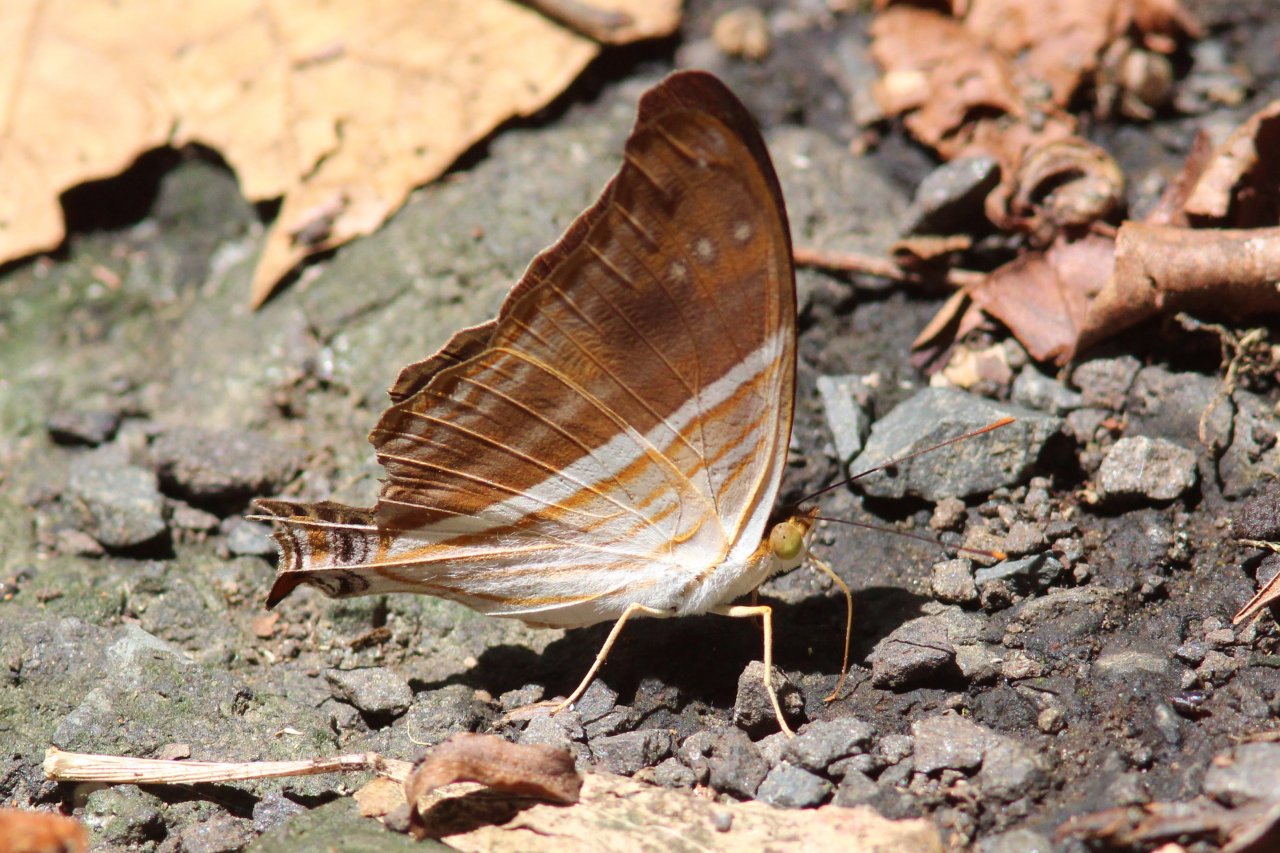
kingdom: Animalia
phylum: Arthropoda
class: Insecta
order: Lepidoptera
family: Nymphalidae
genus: Marpesia
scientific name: Marpesia chiron
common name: Many-banded Daggerwing
